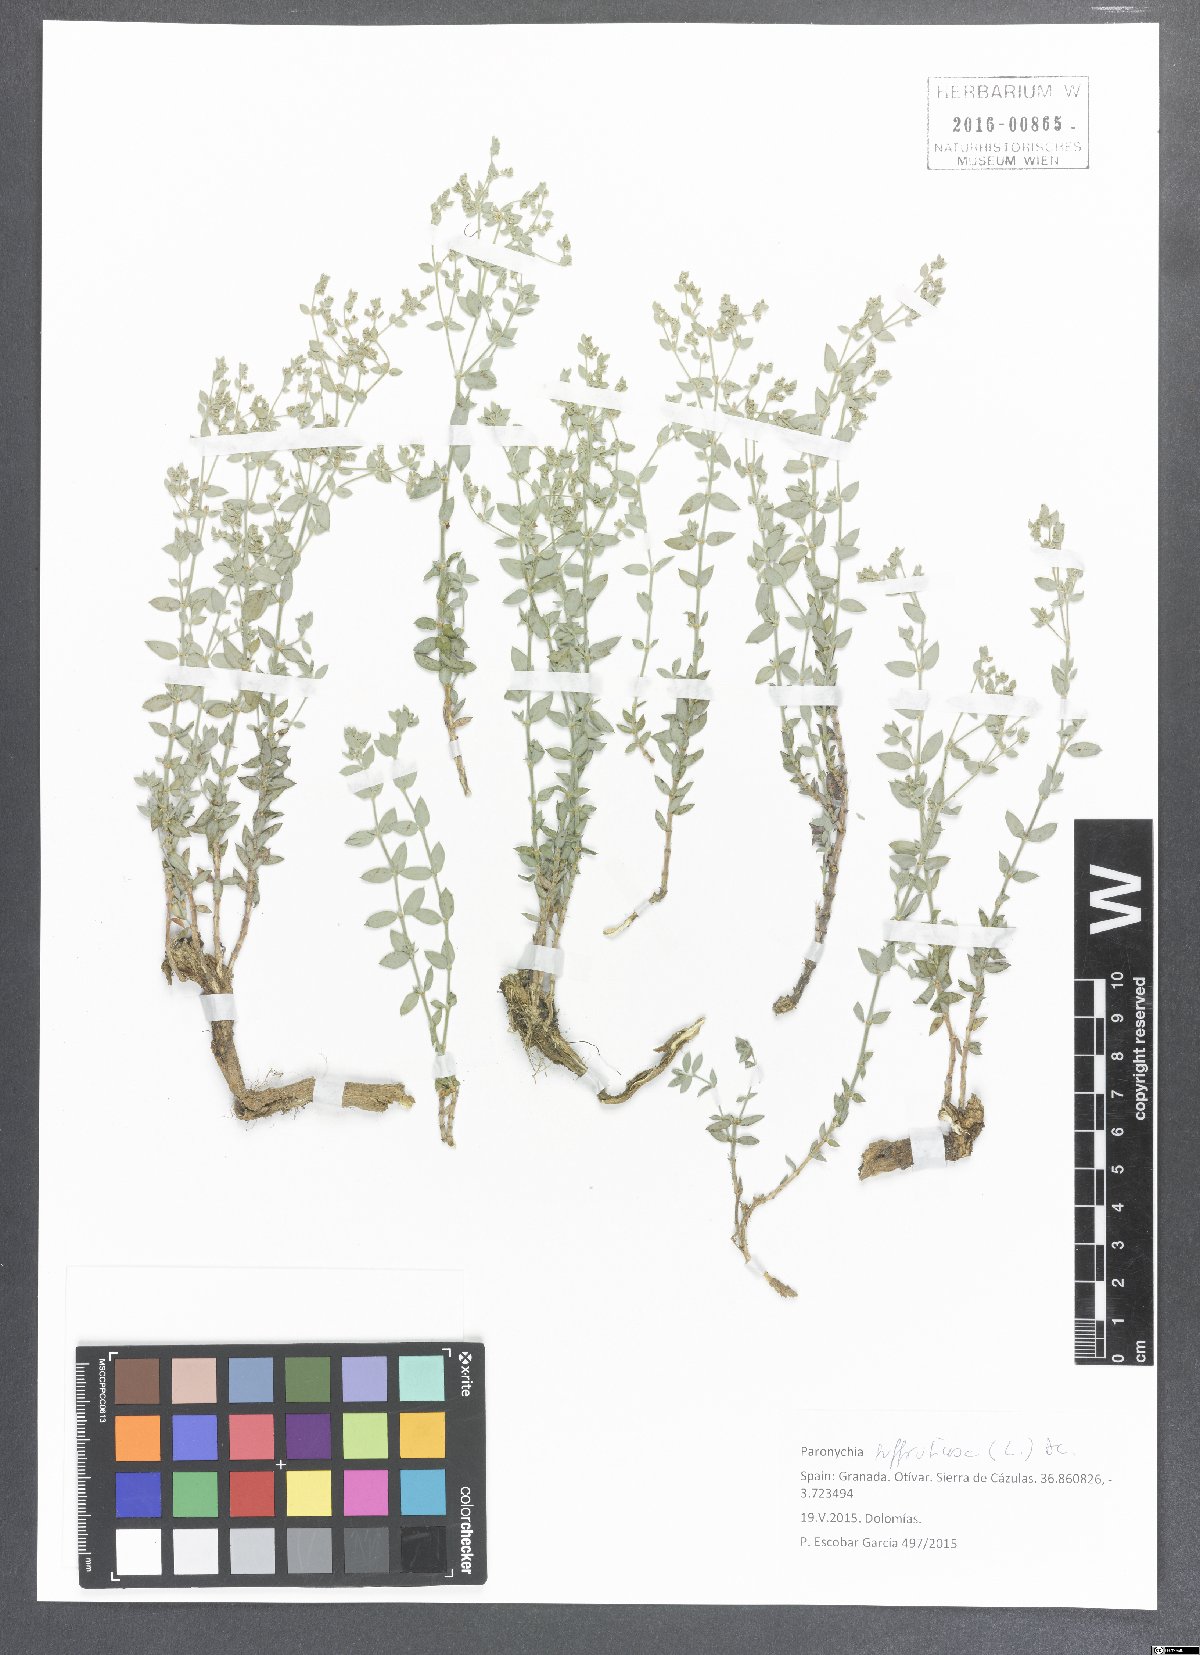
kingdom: Plantae
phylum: Tracheophyta
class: Magnoliopsida
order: Caryophyllales
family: Caryophyllaceae
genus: Paronychia
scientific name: Paronychia suffruticosa
